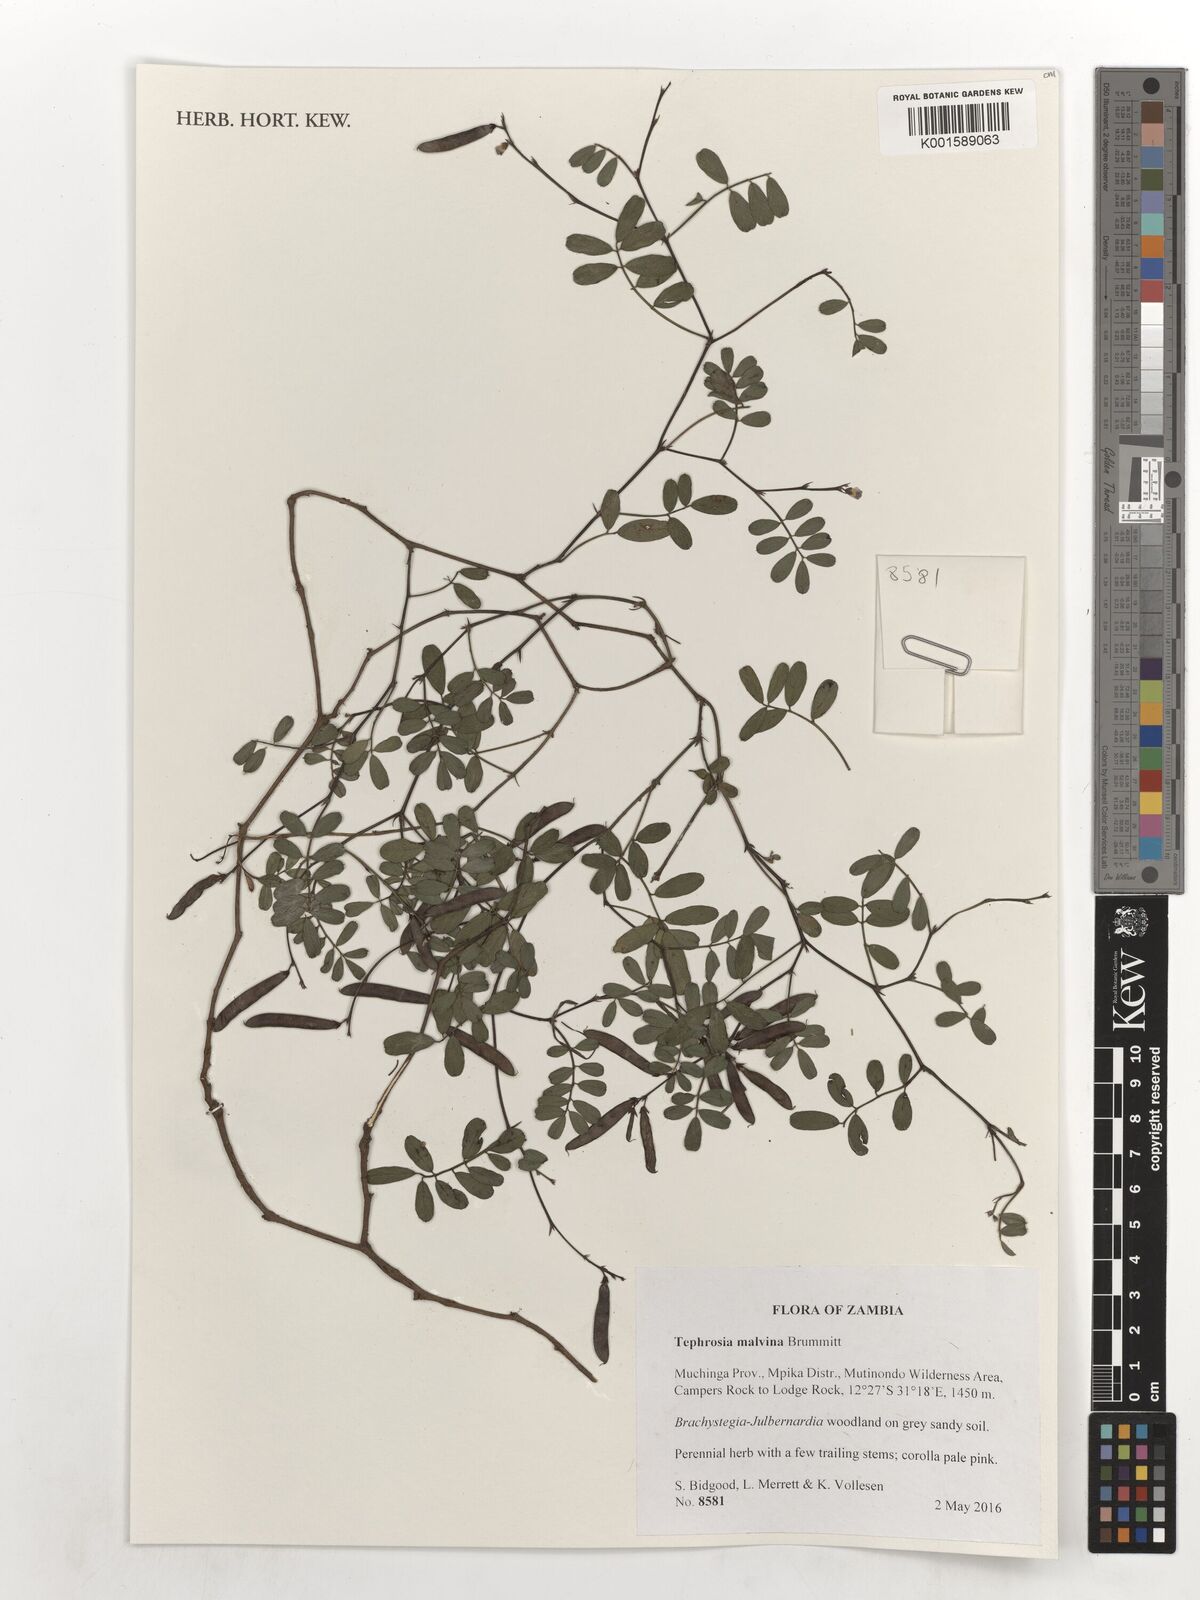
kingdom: Plantae
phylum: Tracheophyta
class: Magnoliopsida
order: Fabales
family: Fabaceae
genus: Tephrosia
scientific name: Tephrosia malvina
